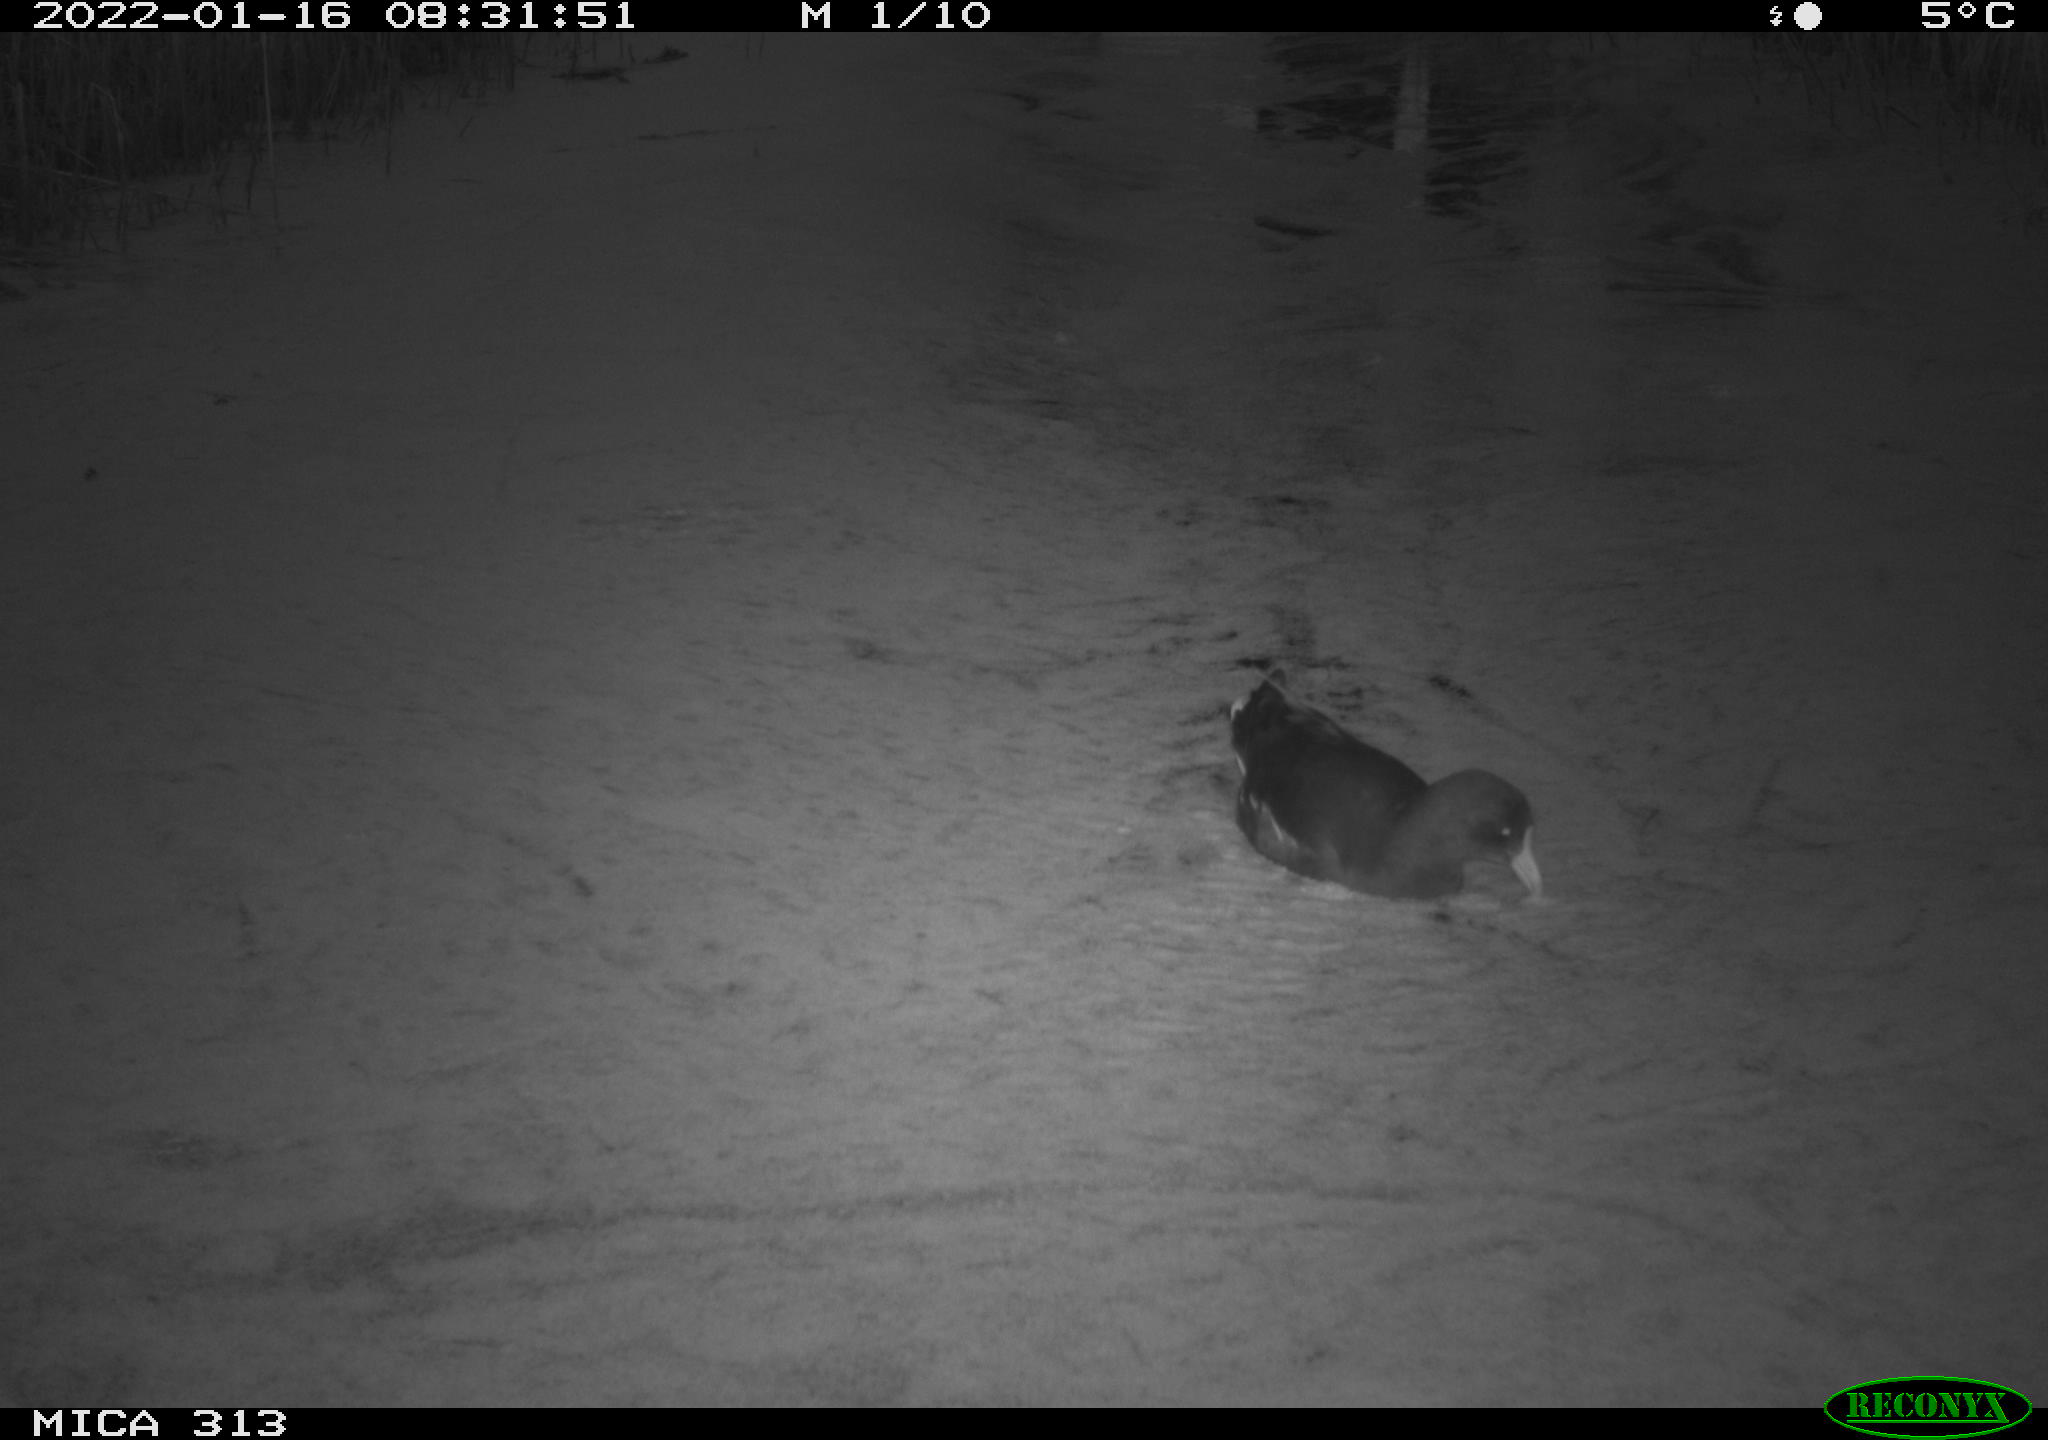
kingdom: Animalia
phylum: Chordata
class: Aves
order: Gruiformes
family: Rallidae
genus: Fulica
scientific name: Fulica atra
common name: Eurasian coot
